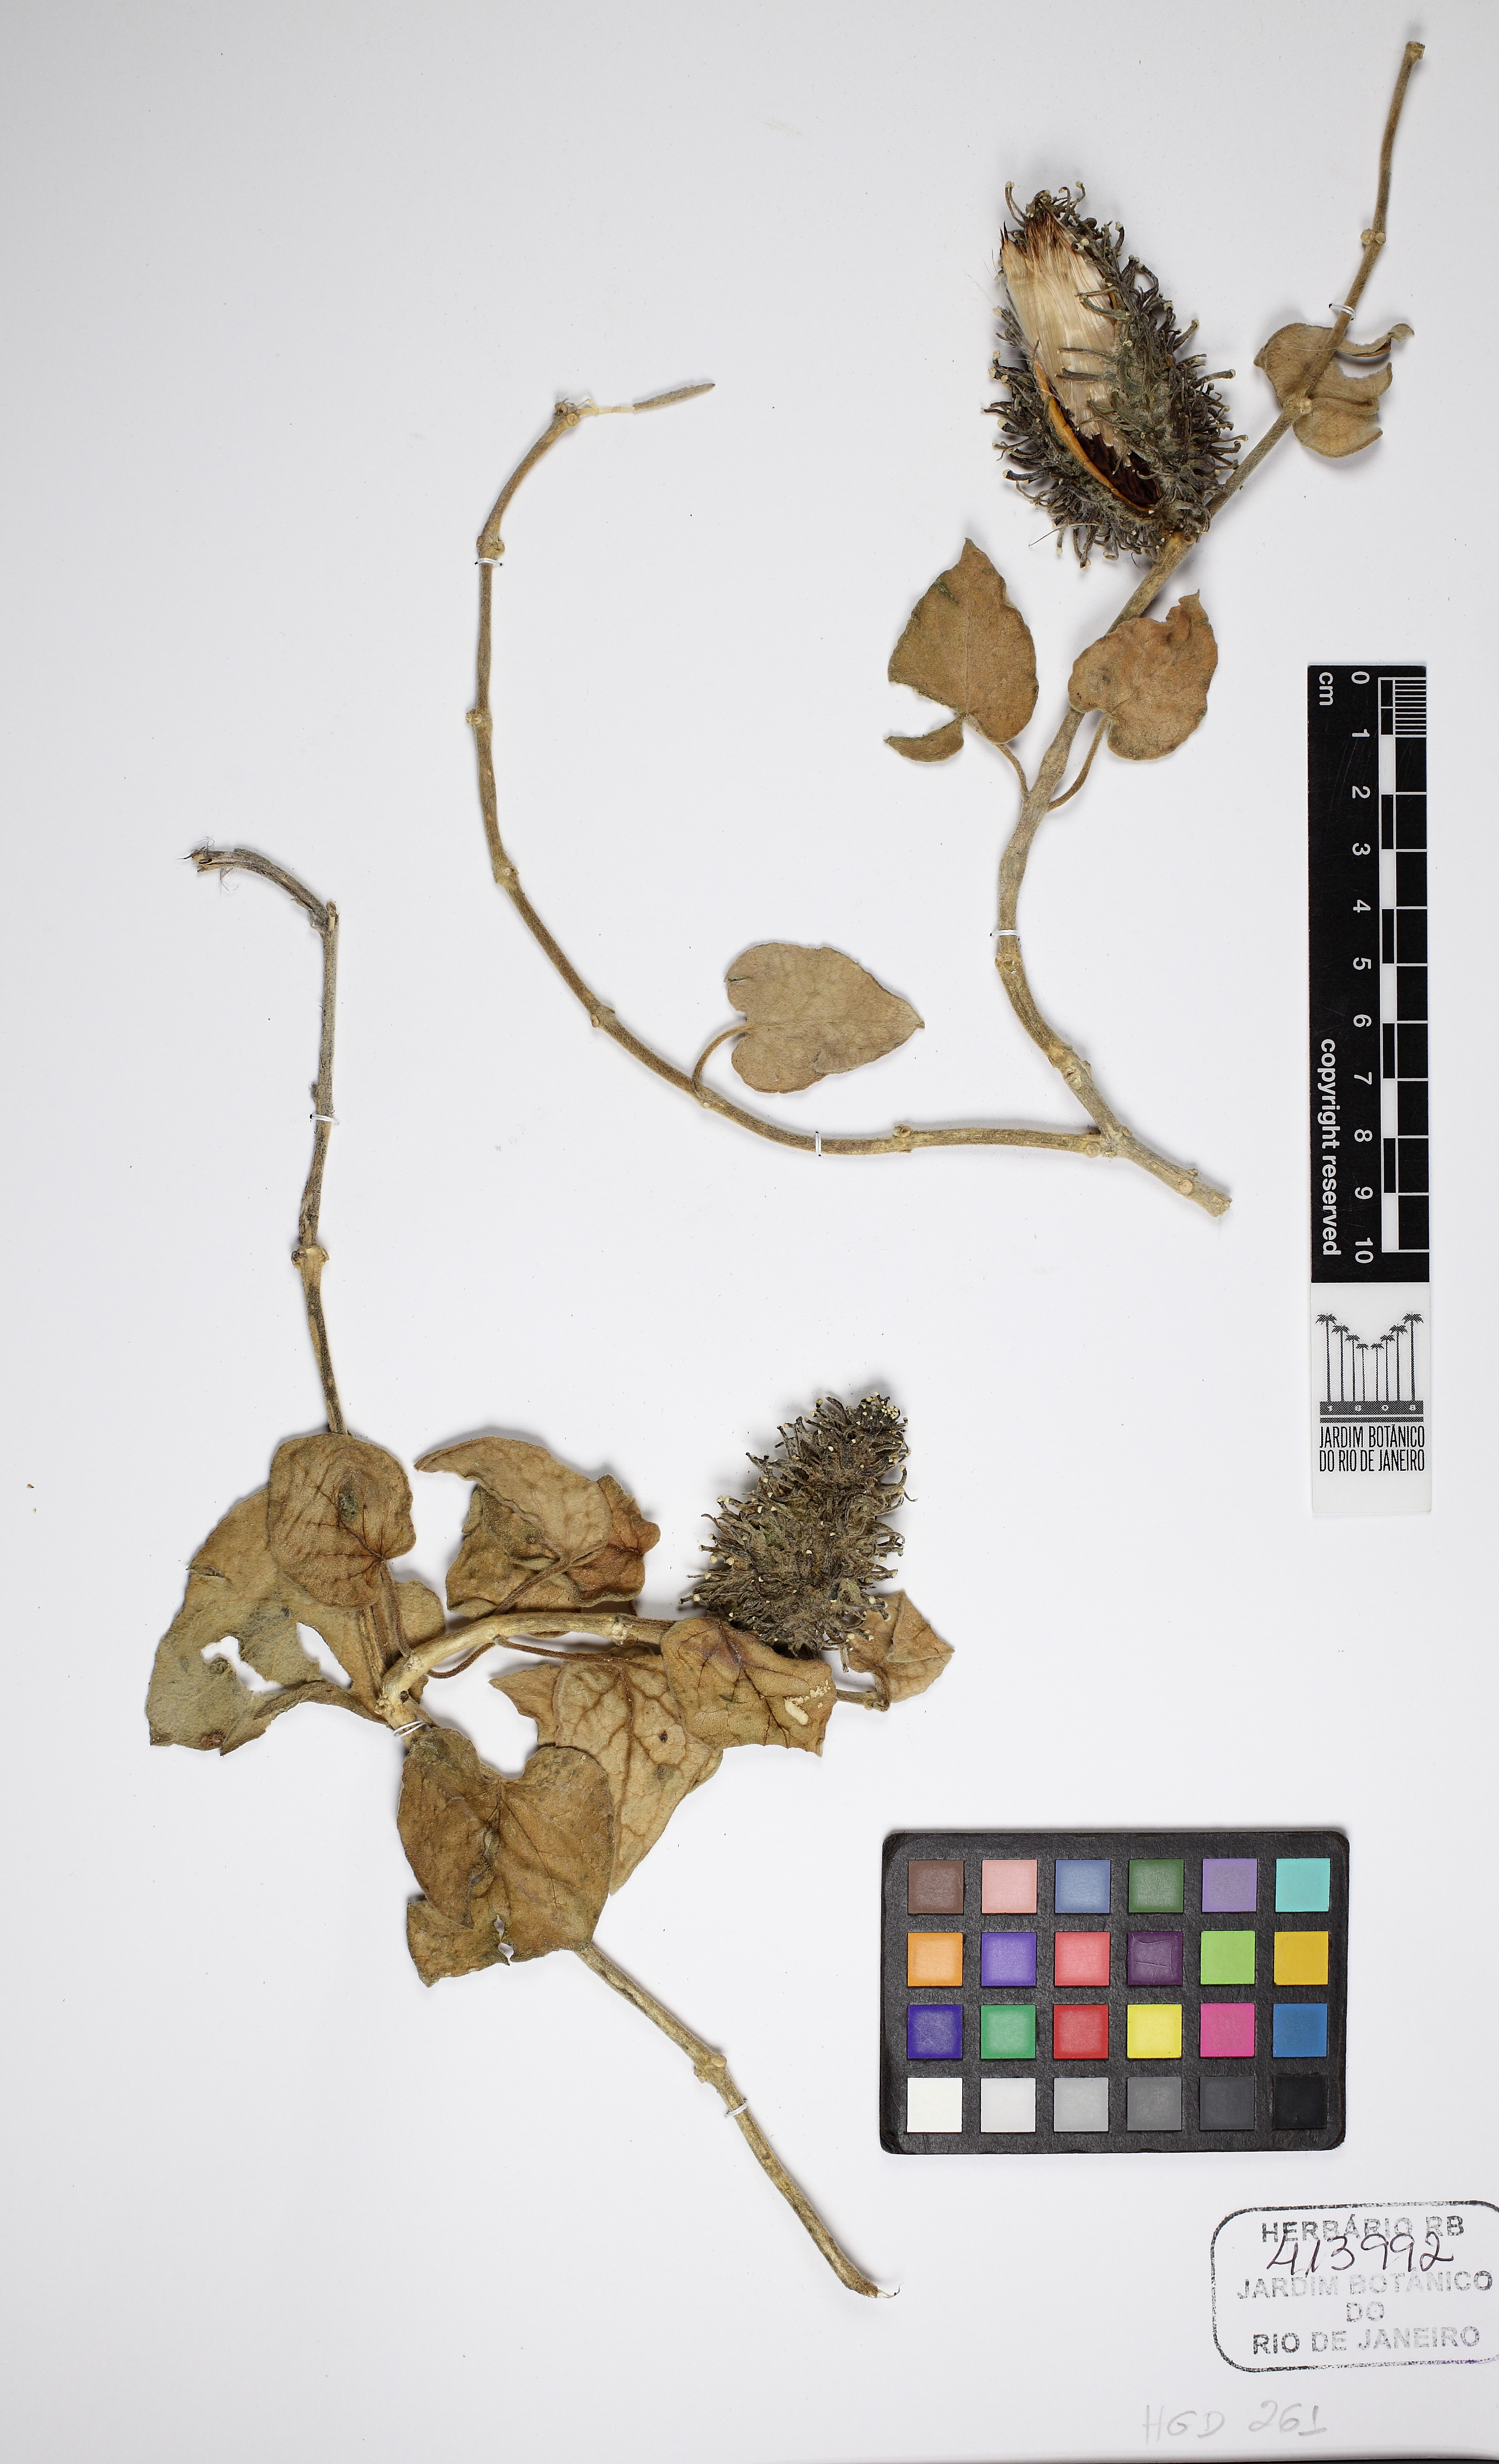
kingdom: Plantae
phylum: Tracheophyta
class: Magnoliopsida
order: Gentianales
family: Apocynaceae
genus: Ibatia
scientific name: Ibatia ganglinosa
